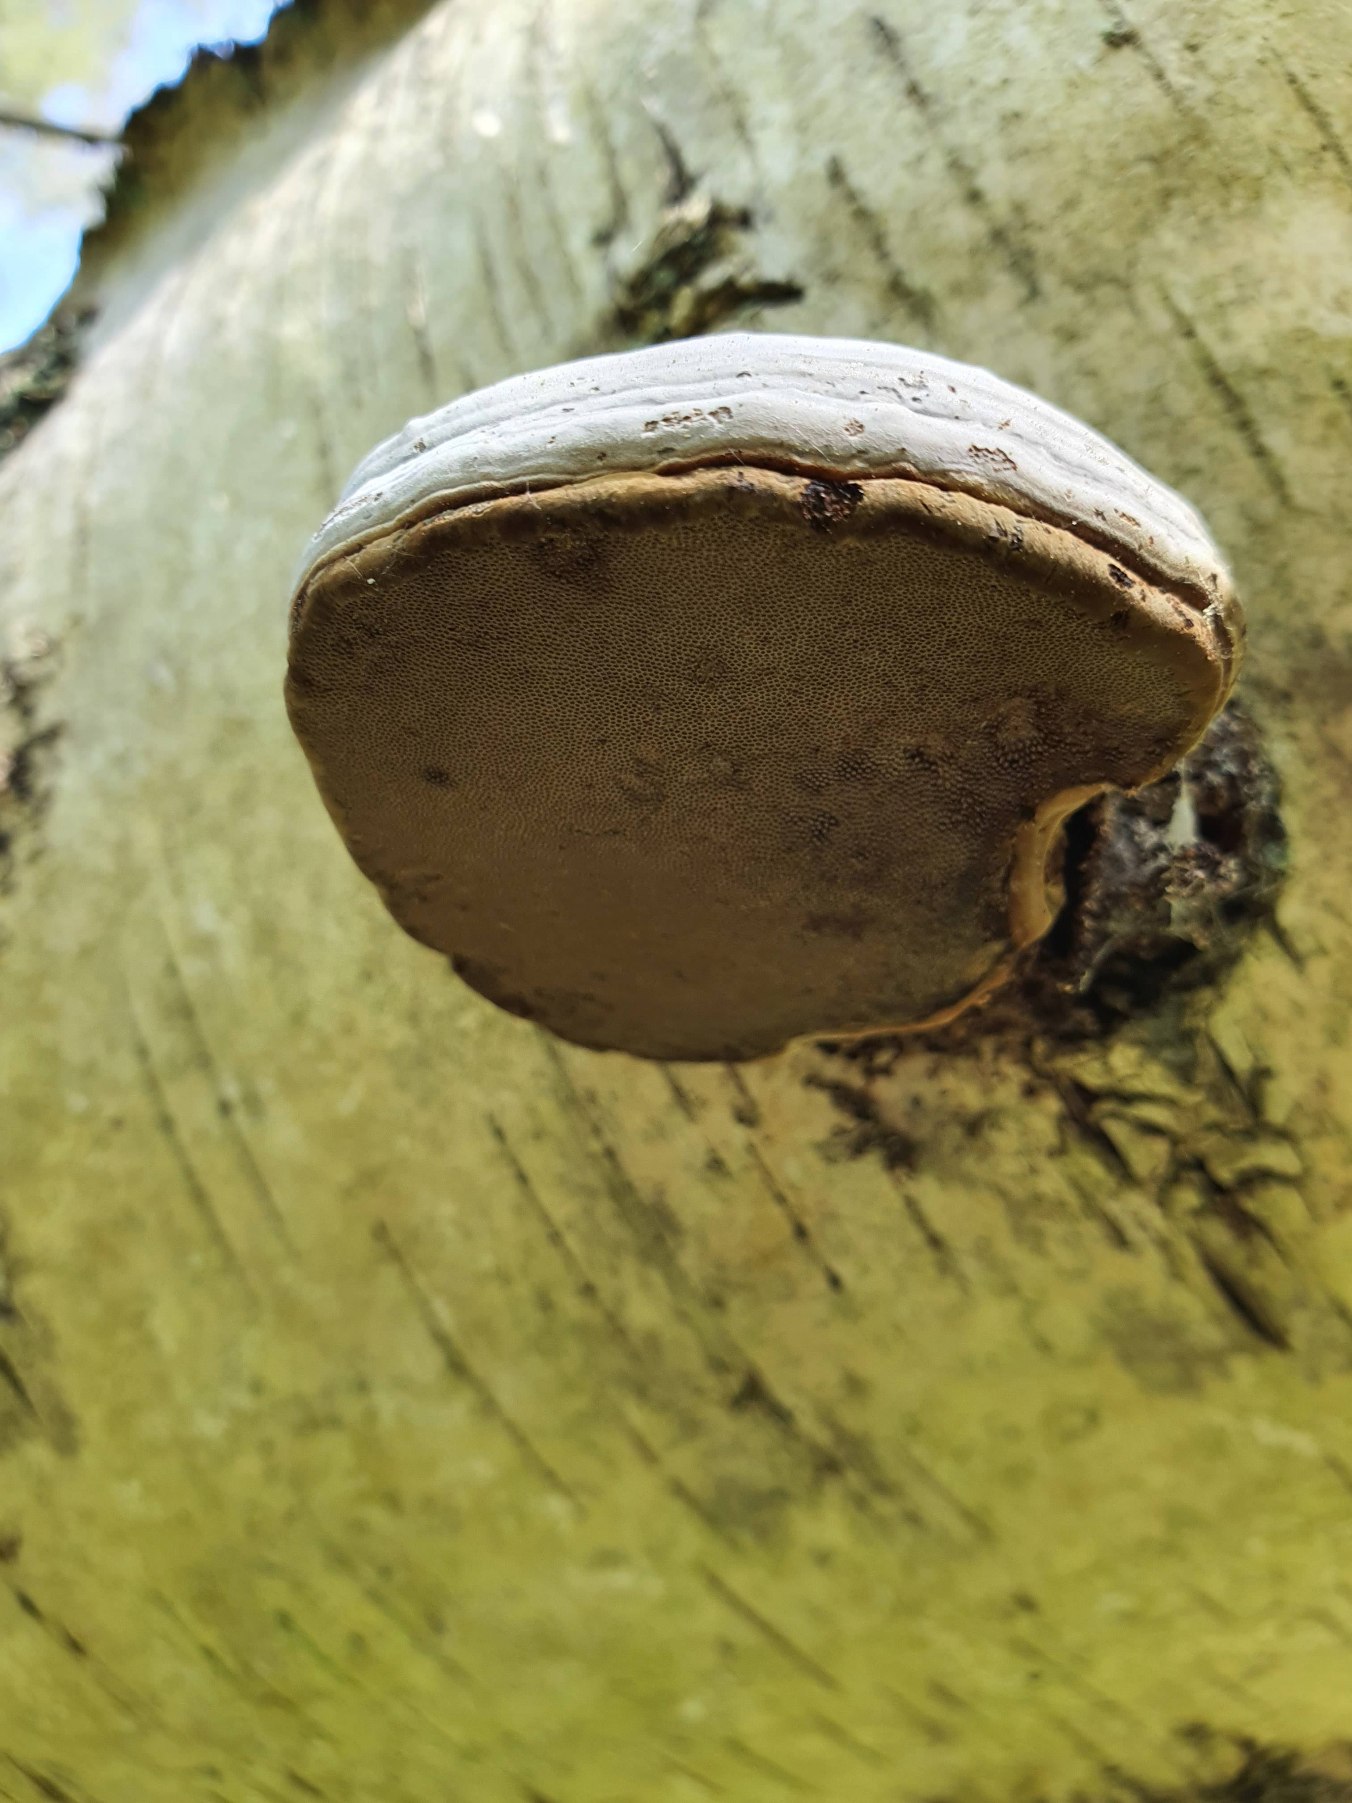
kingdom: Fungi
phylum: Basidiomycota
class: Agaricomycetes
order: Polyporales
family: Polyporaceae
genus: Fomes
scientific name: Fomes fomentarius
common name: Tøndersvamp
